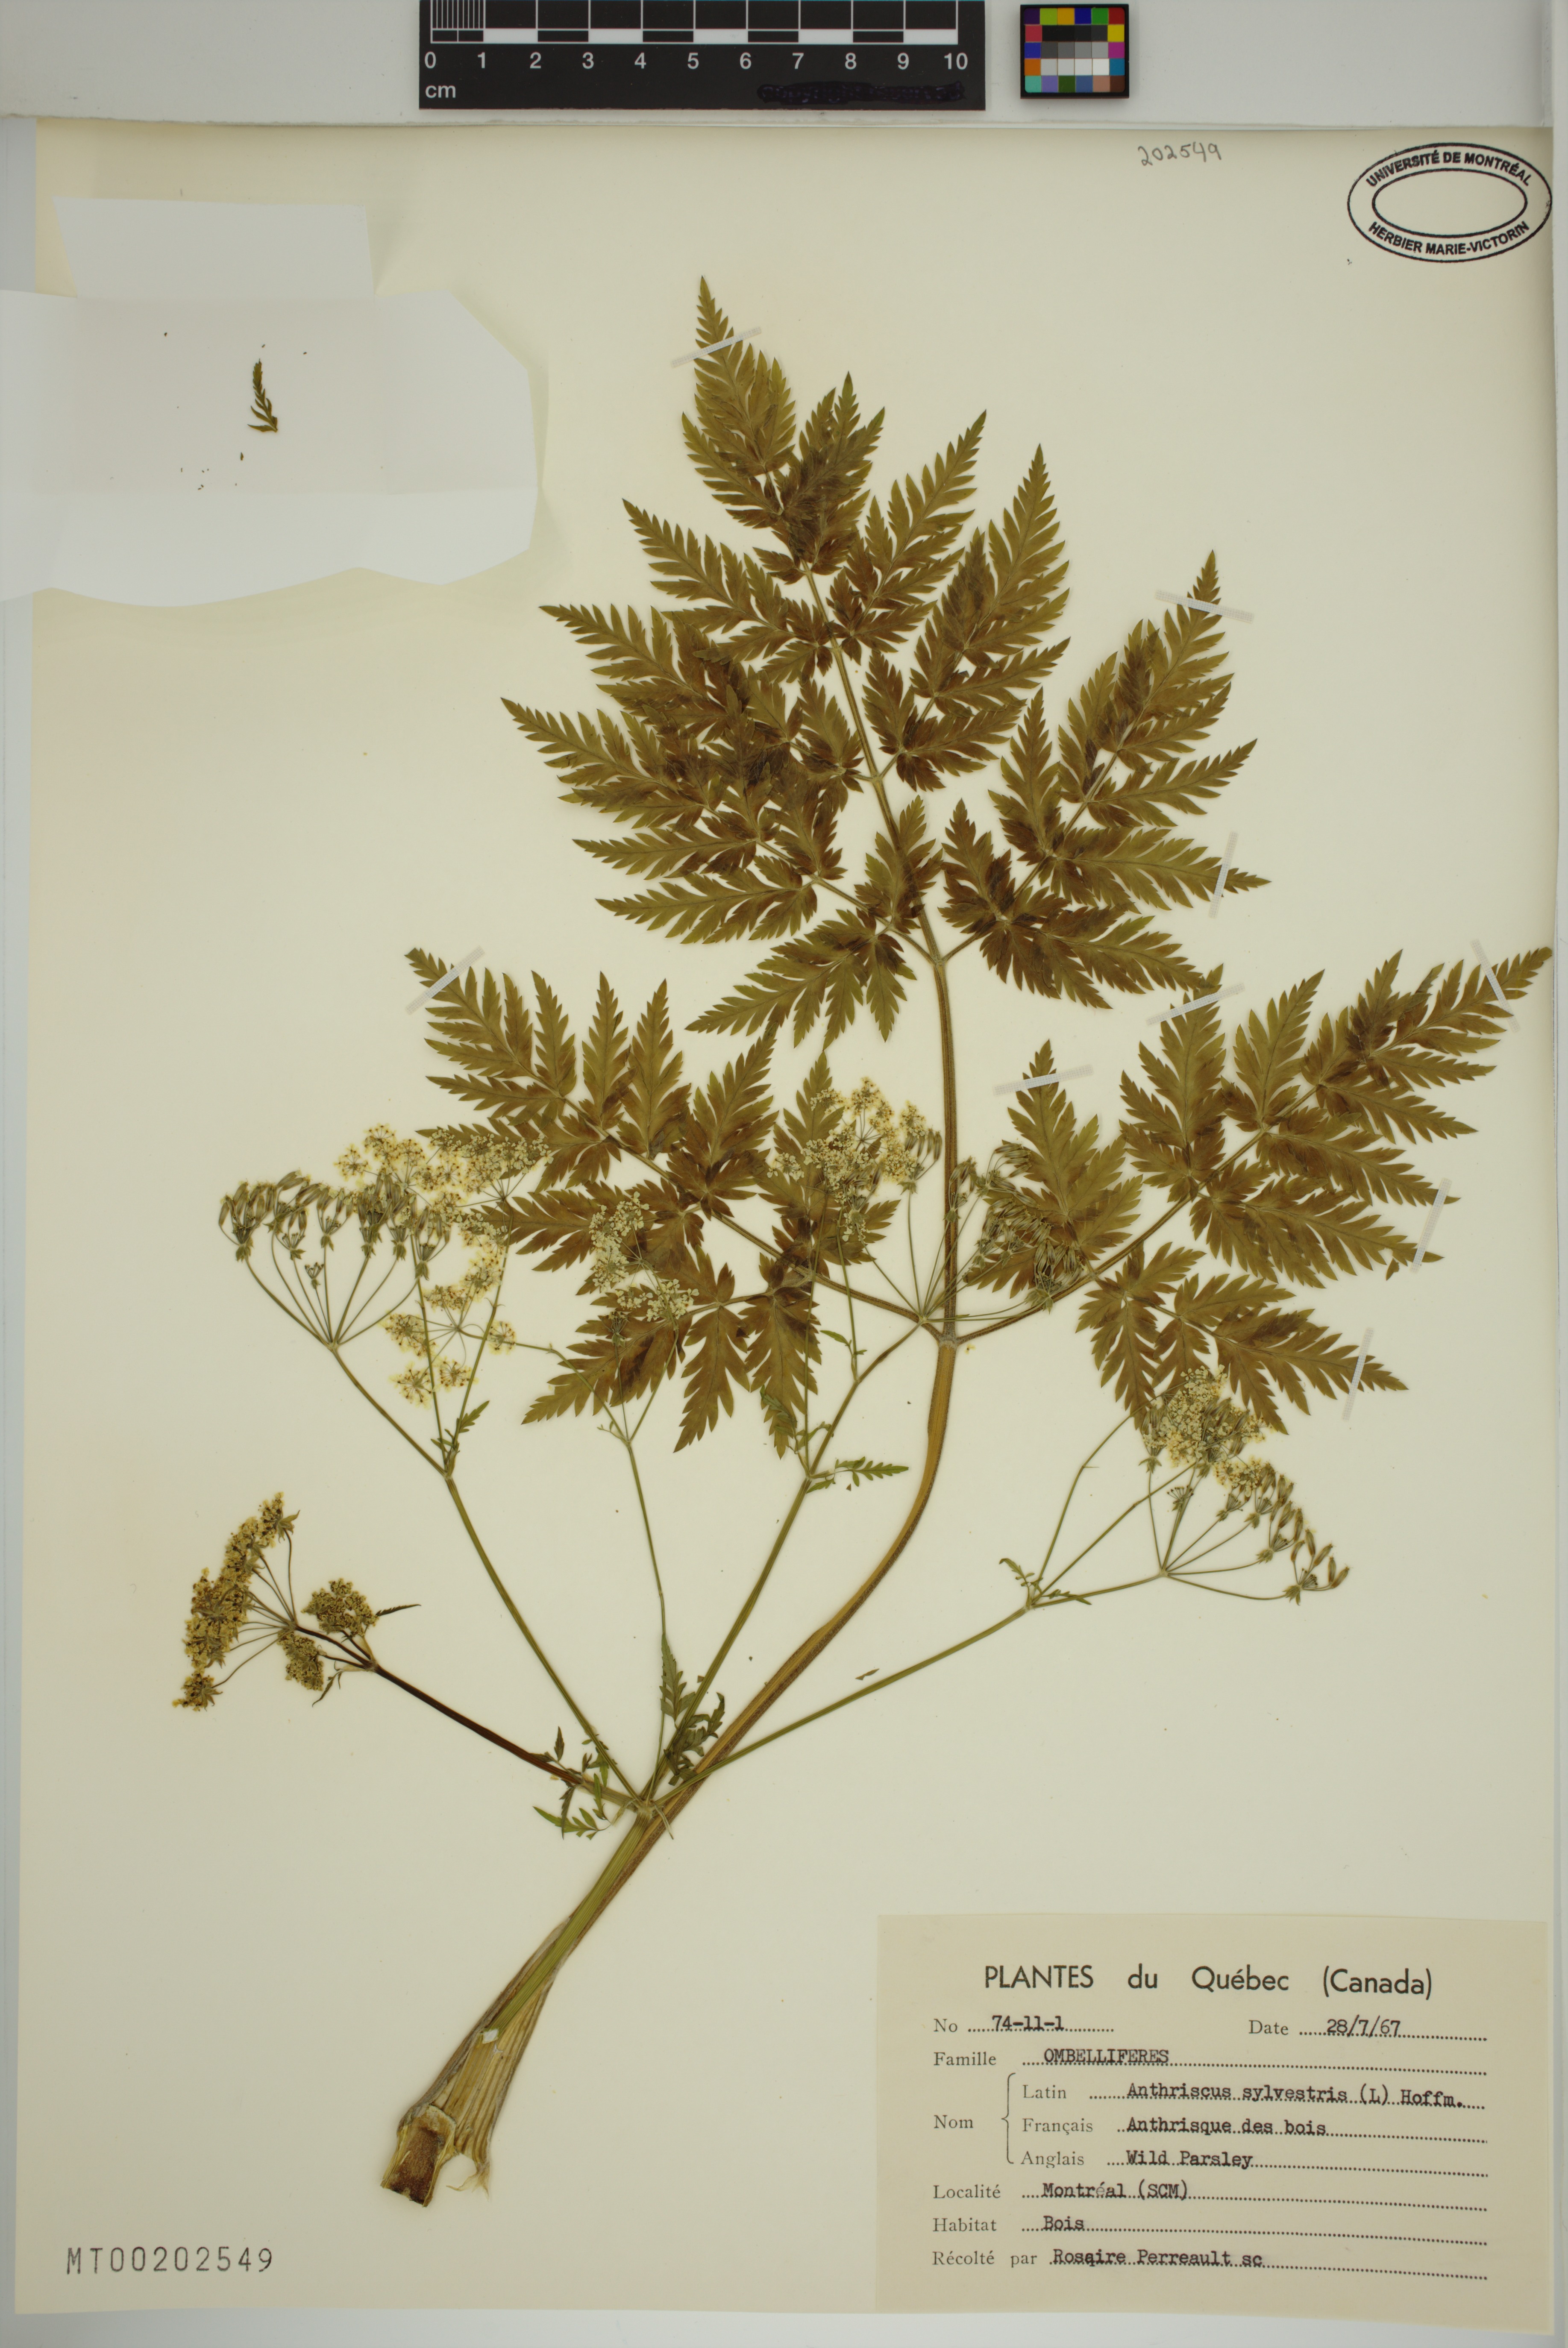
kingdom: Plantae
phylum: Tracheophyta
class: Magnoliopsida
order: Apiales
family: Apiaceae
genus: Anthriscus
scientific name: Anthriscus sylvestris
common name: Cow parsley
